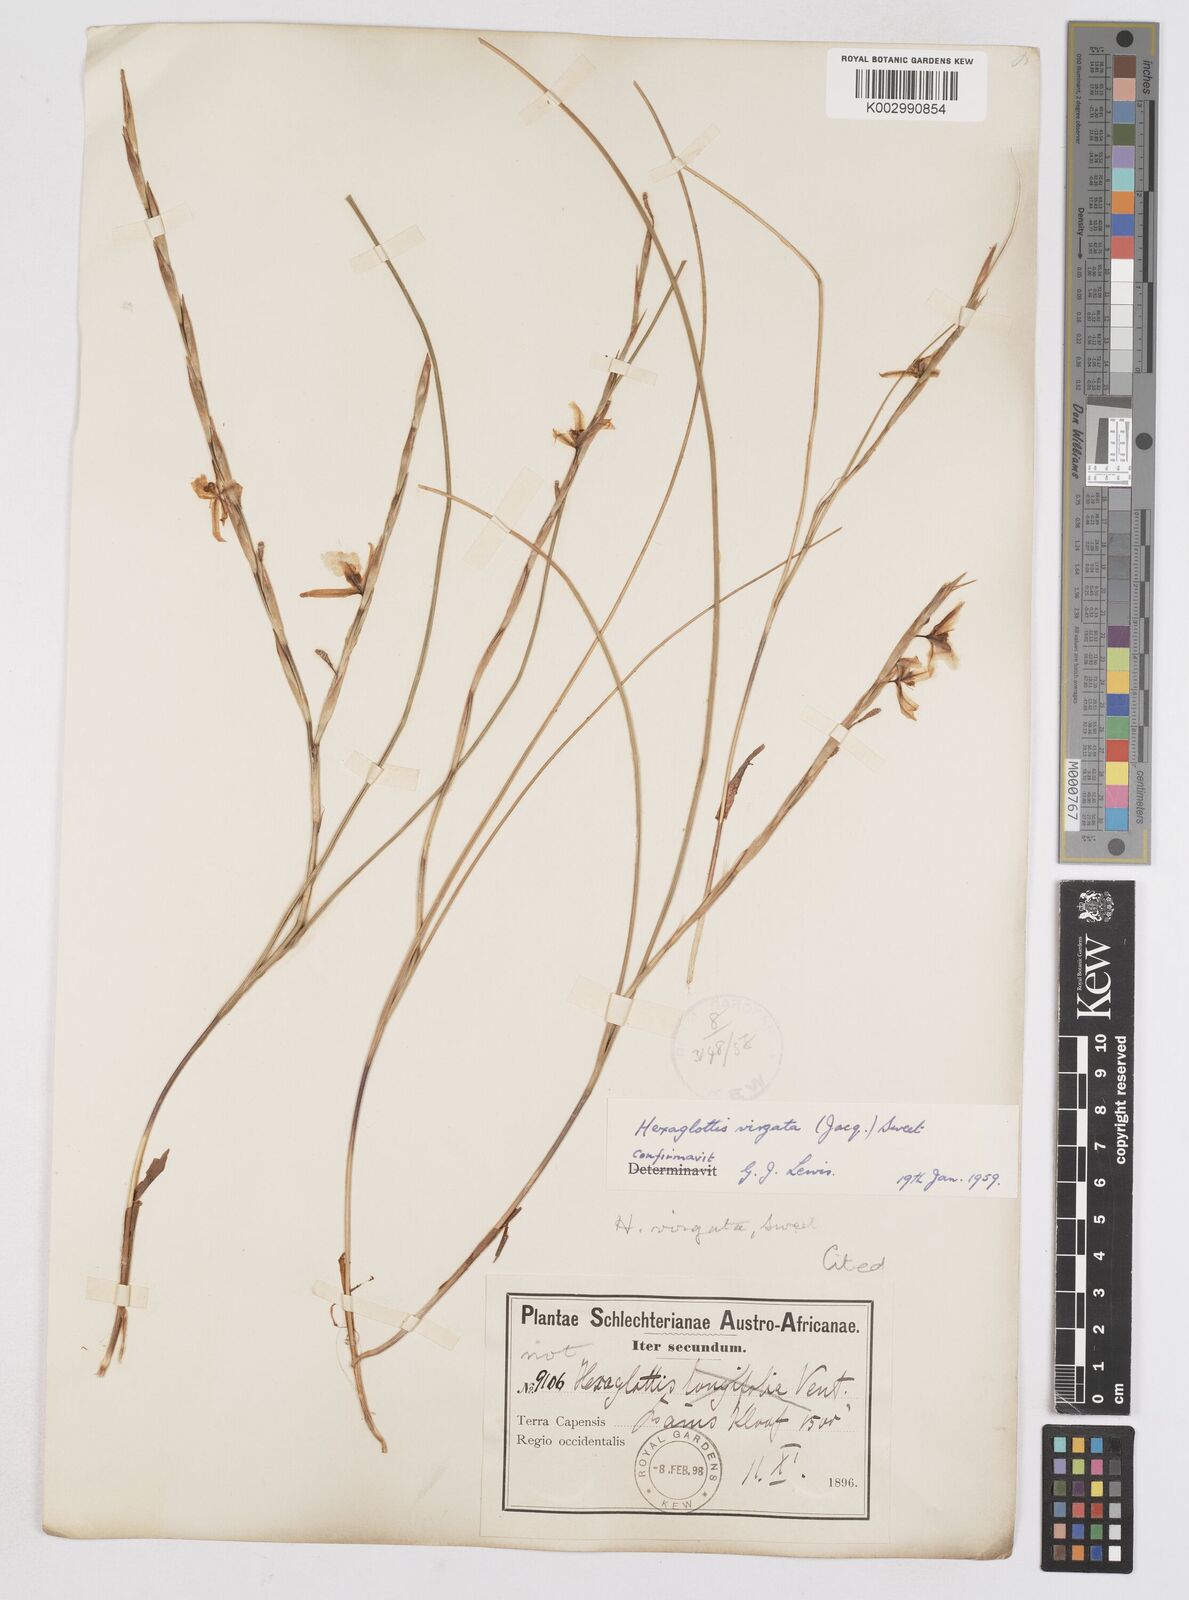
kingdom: Plantae
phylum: Tracheophyta
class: Liliopsida
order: Asparagales
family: Iridaceae
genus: Moraea
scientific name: Moraea virgata
